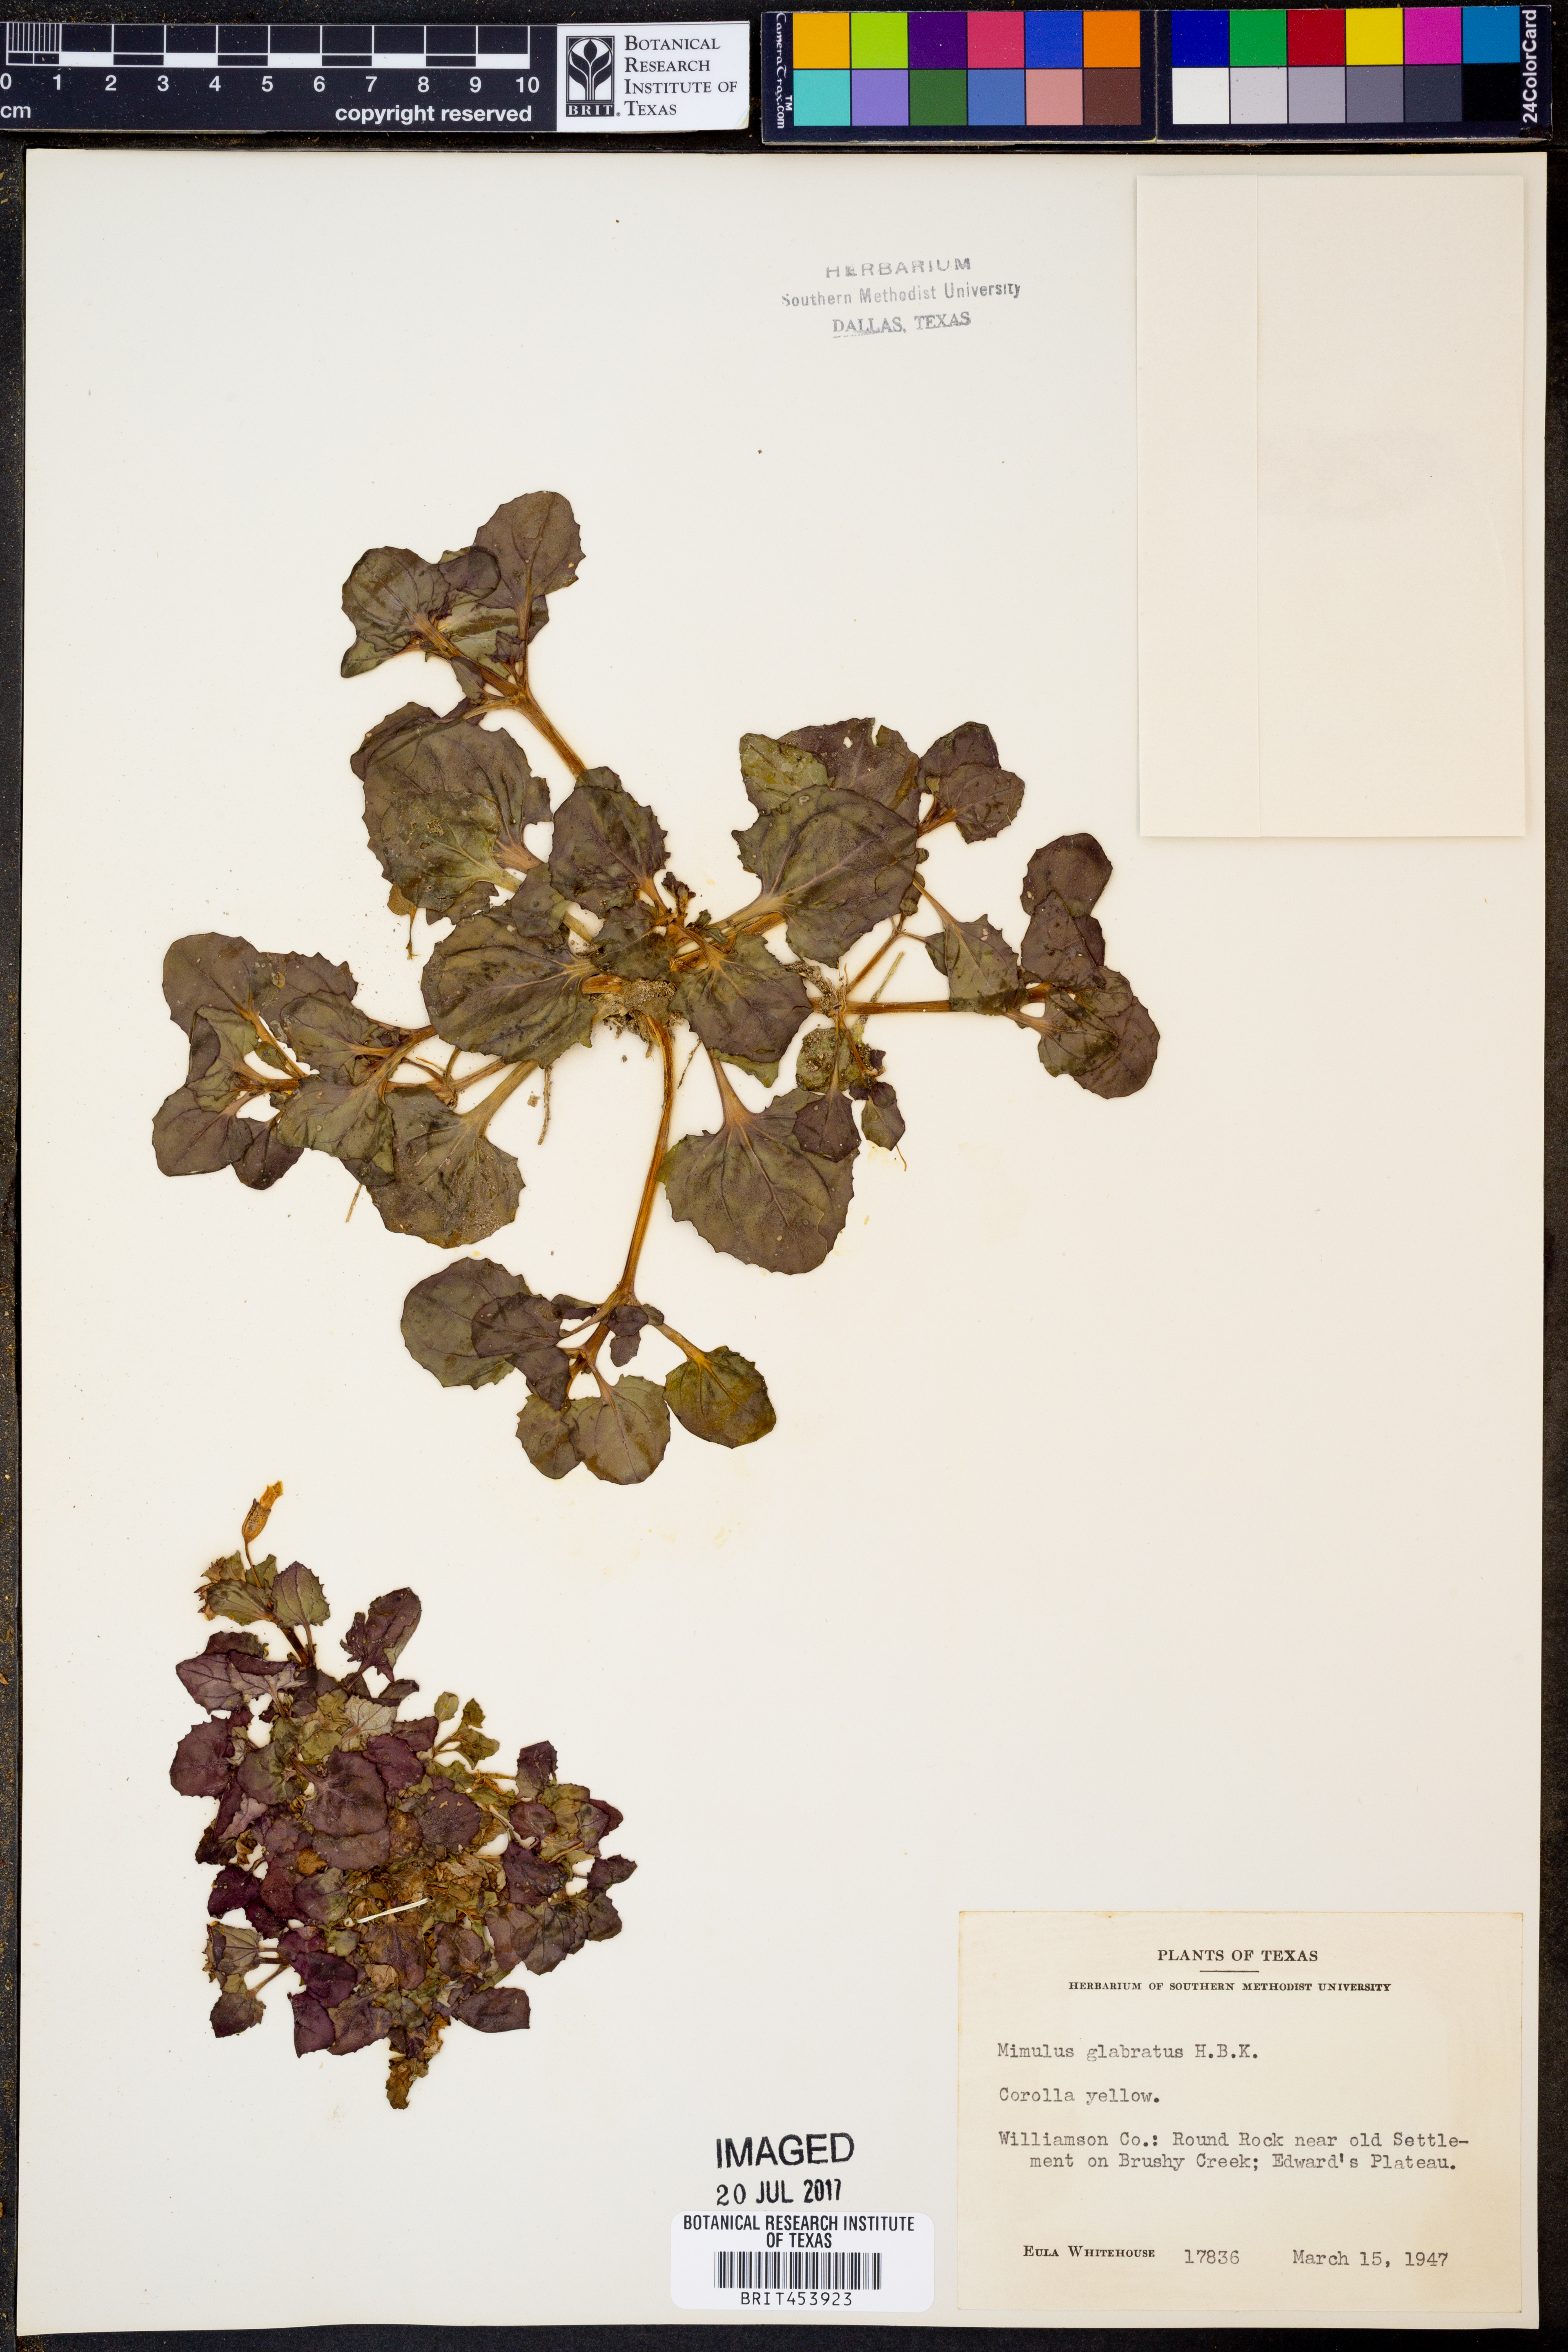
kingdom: Plantae
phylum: Tracheophyta
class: Magnoliopsida
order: Lamiales
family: Phrymaceae
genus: Erythranthe
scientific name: Erythranthe glabrata
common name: Round-leaved monkeyflower
